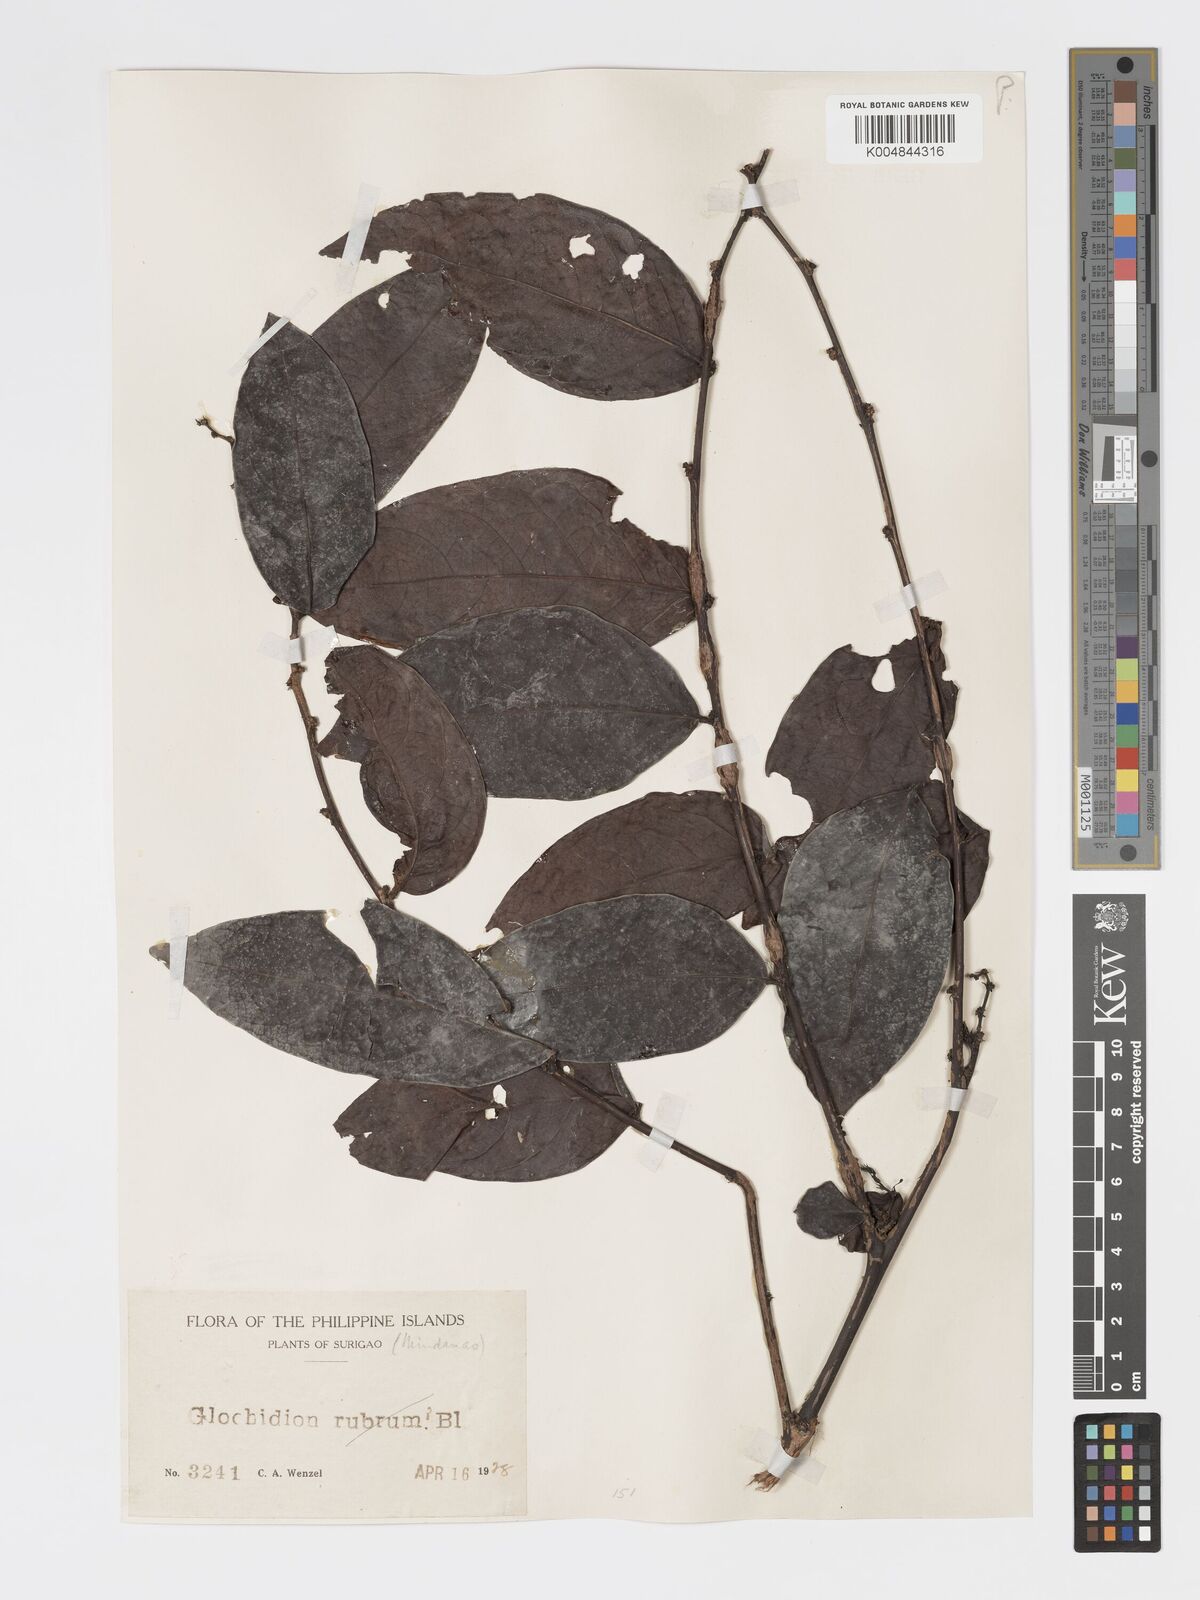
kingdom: Plantae
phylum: Tracheophyta
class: Magnoliopsida
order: Malpighiales
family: Phyllanthaceae
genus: Glochidion
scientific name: Glochidion urophylloides
